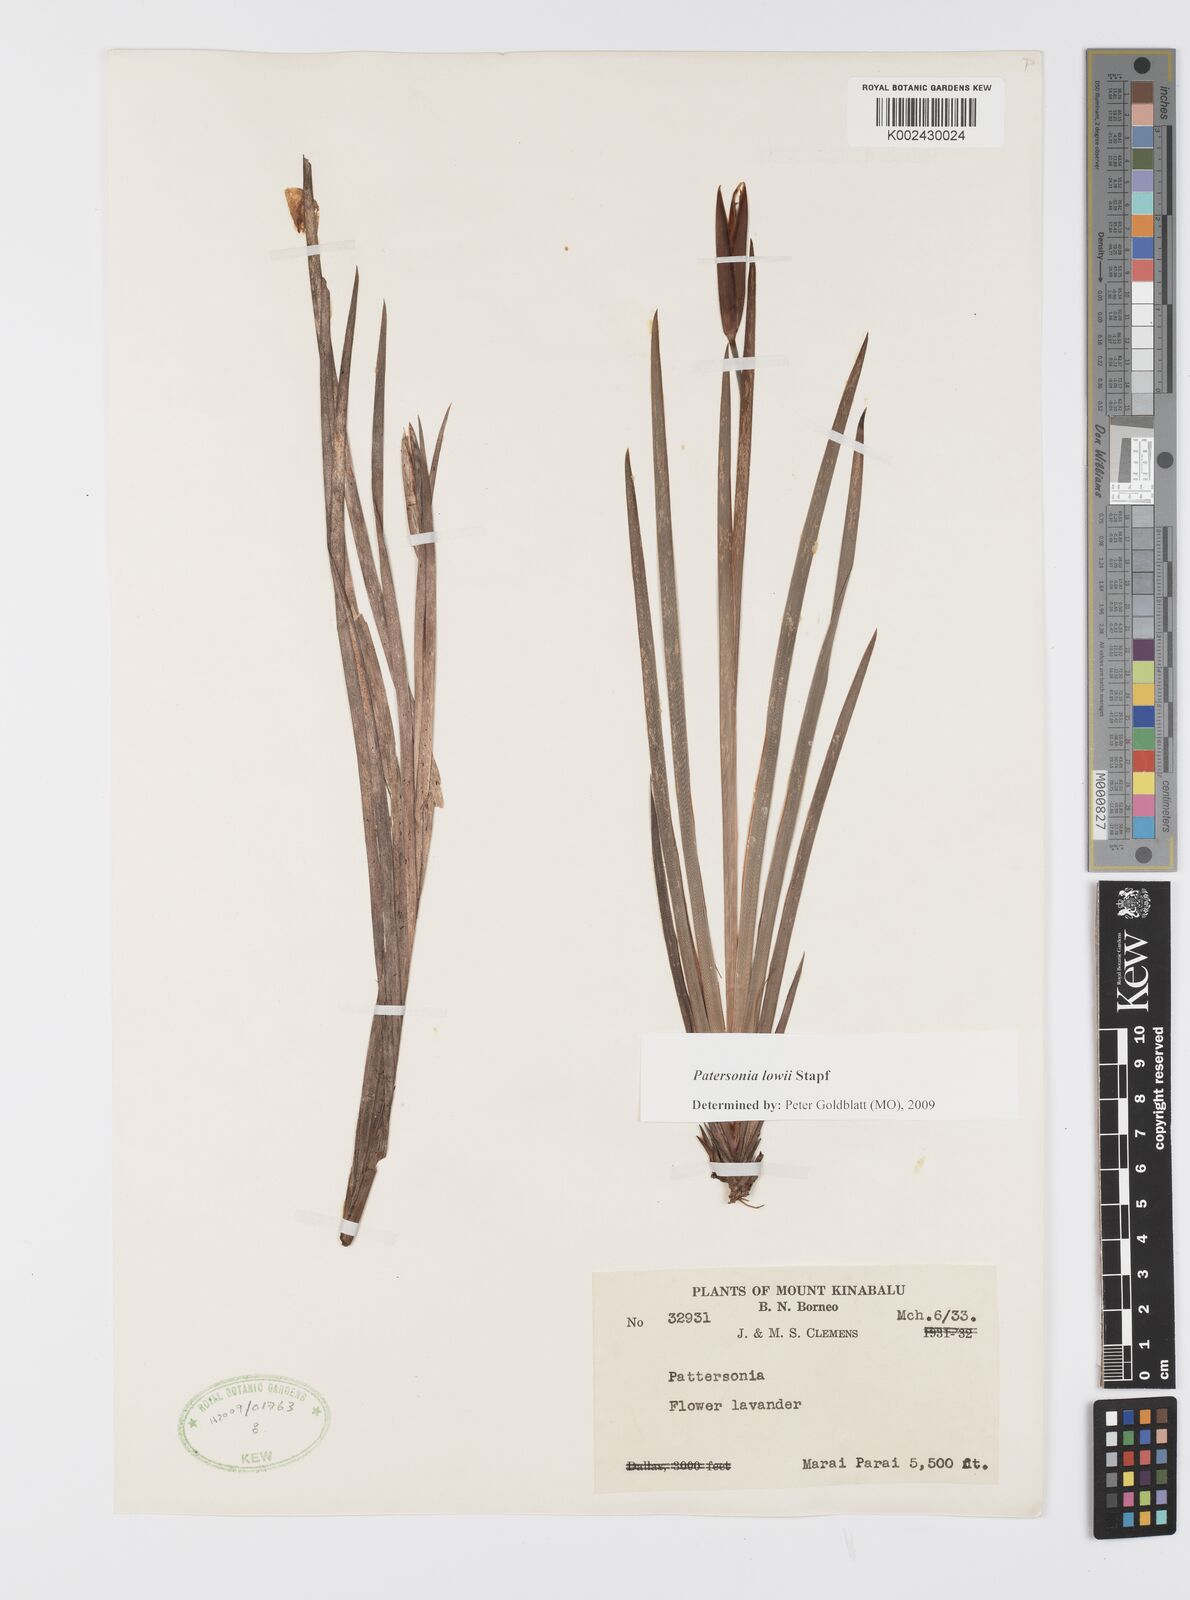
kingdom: Plantae
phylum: Tracheophyta
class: Liliopsida
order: Asparagales
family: Iridaceae
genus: Patersonia
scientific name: Patersonia lowii
